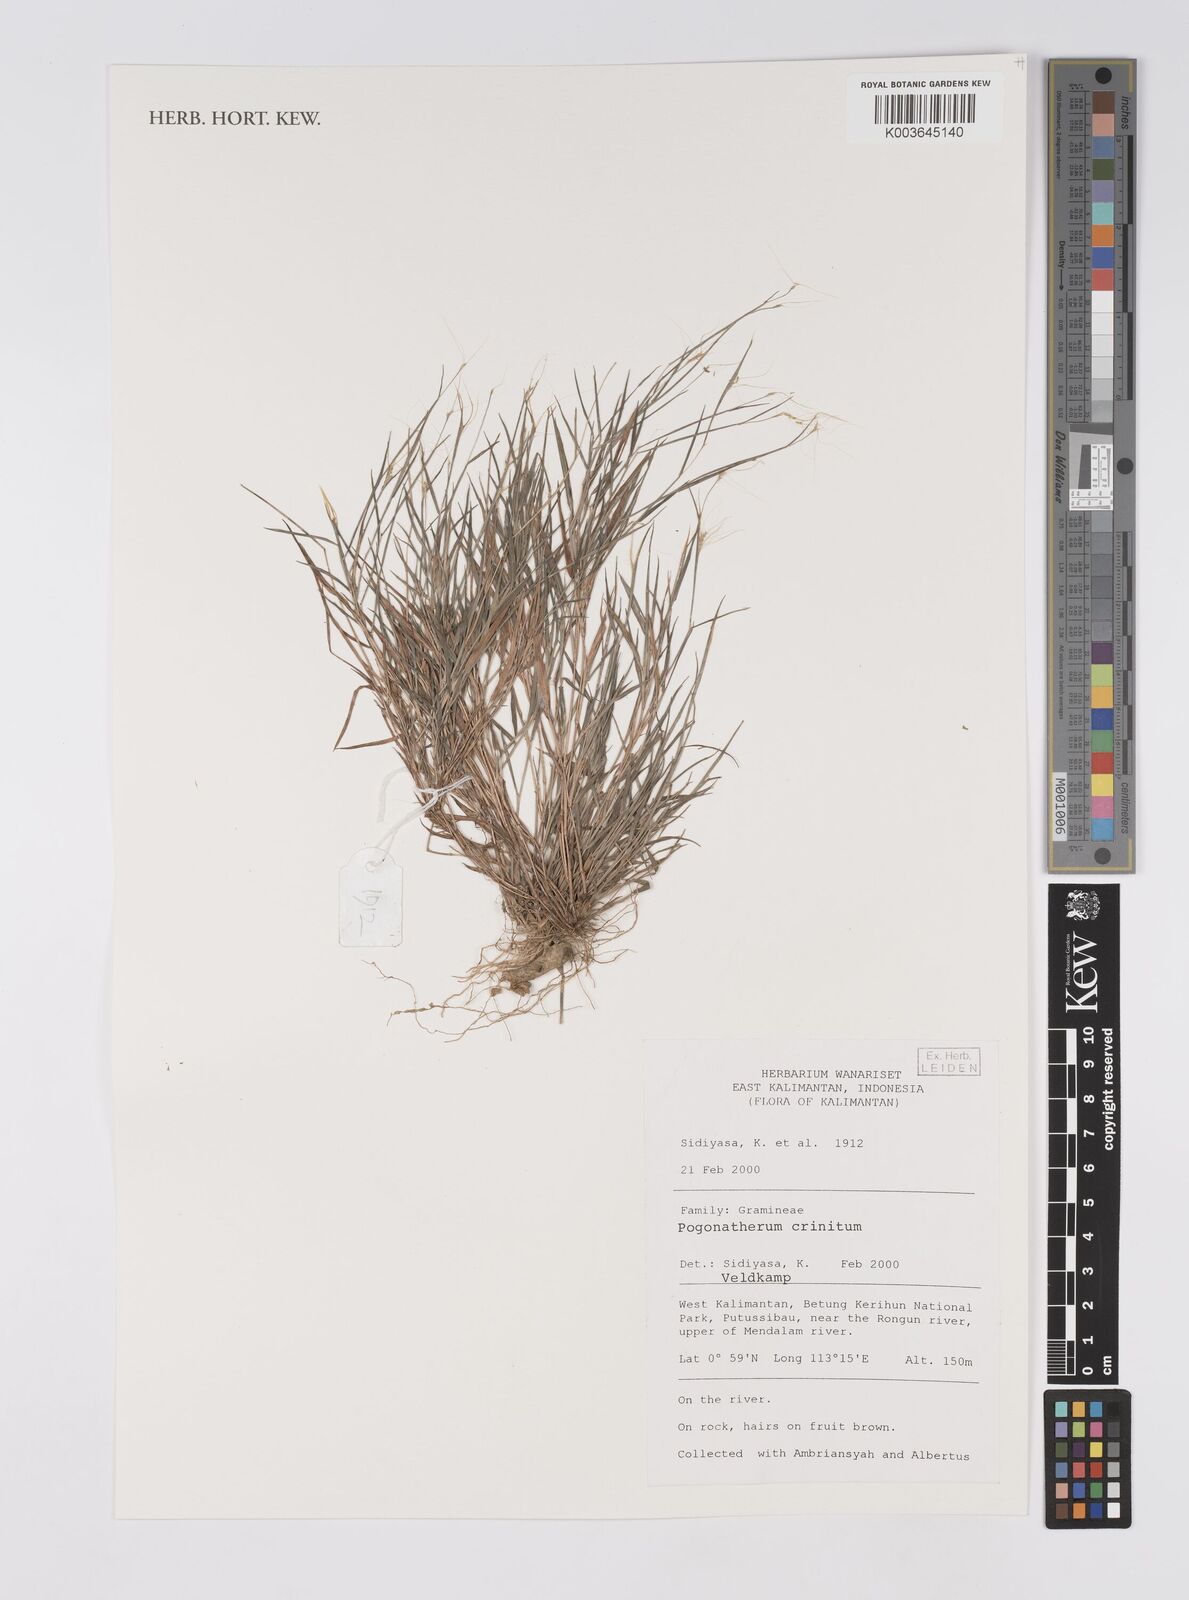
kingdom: Plantae
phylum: Tracheophyta
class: Liliopsida
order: Poales
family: Poaceae
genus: Pogonatherum
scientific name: Pogonatherum crinitum
